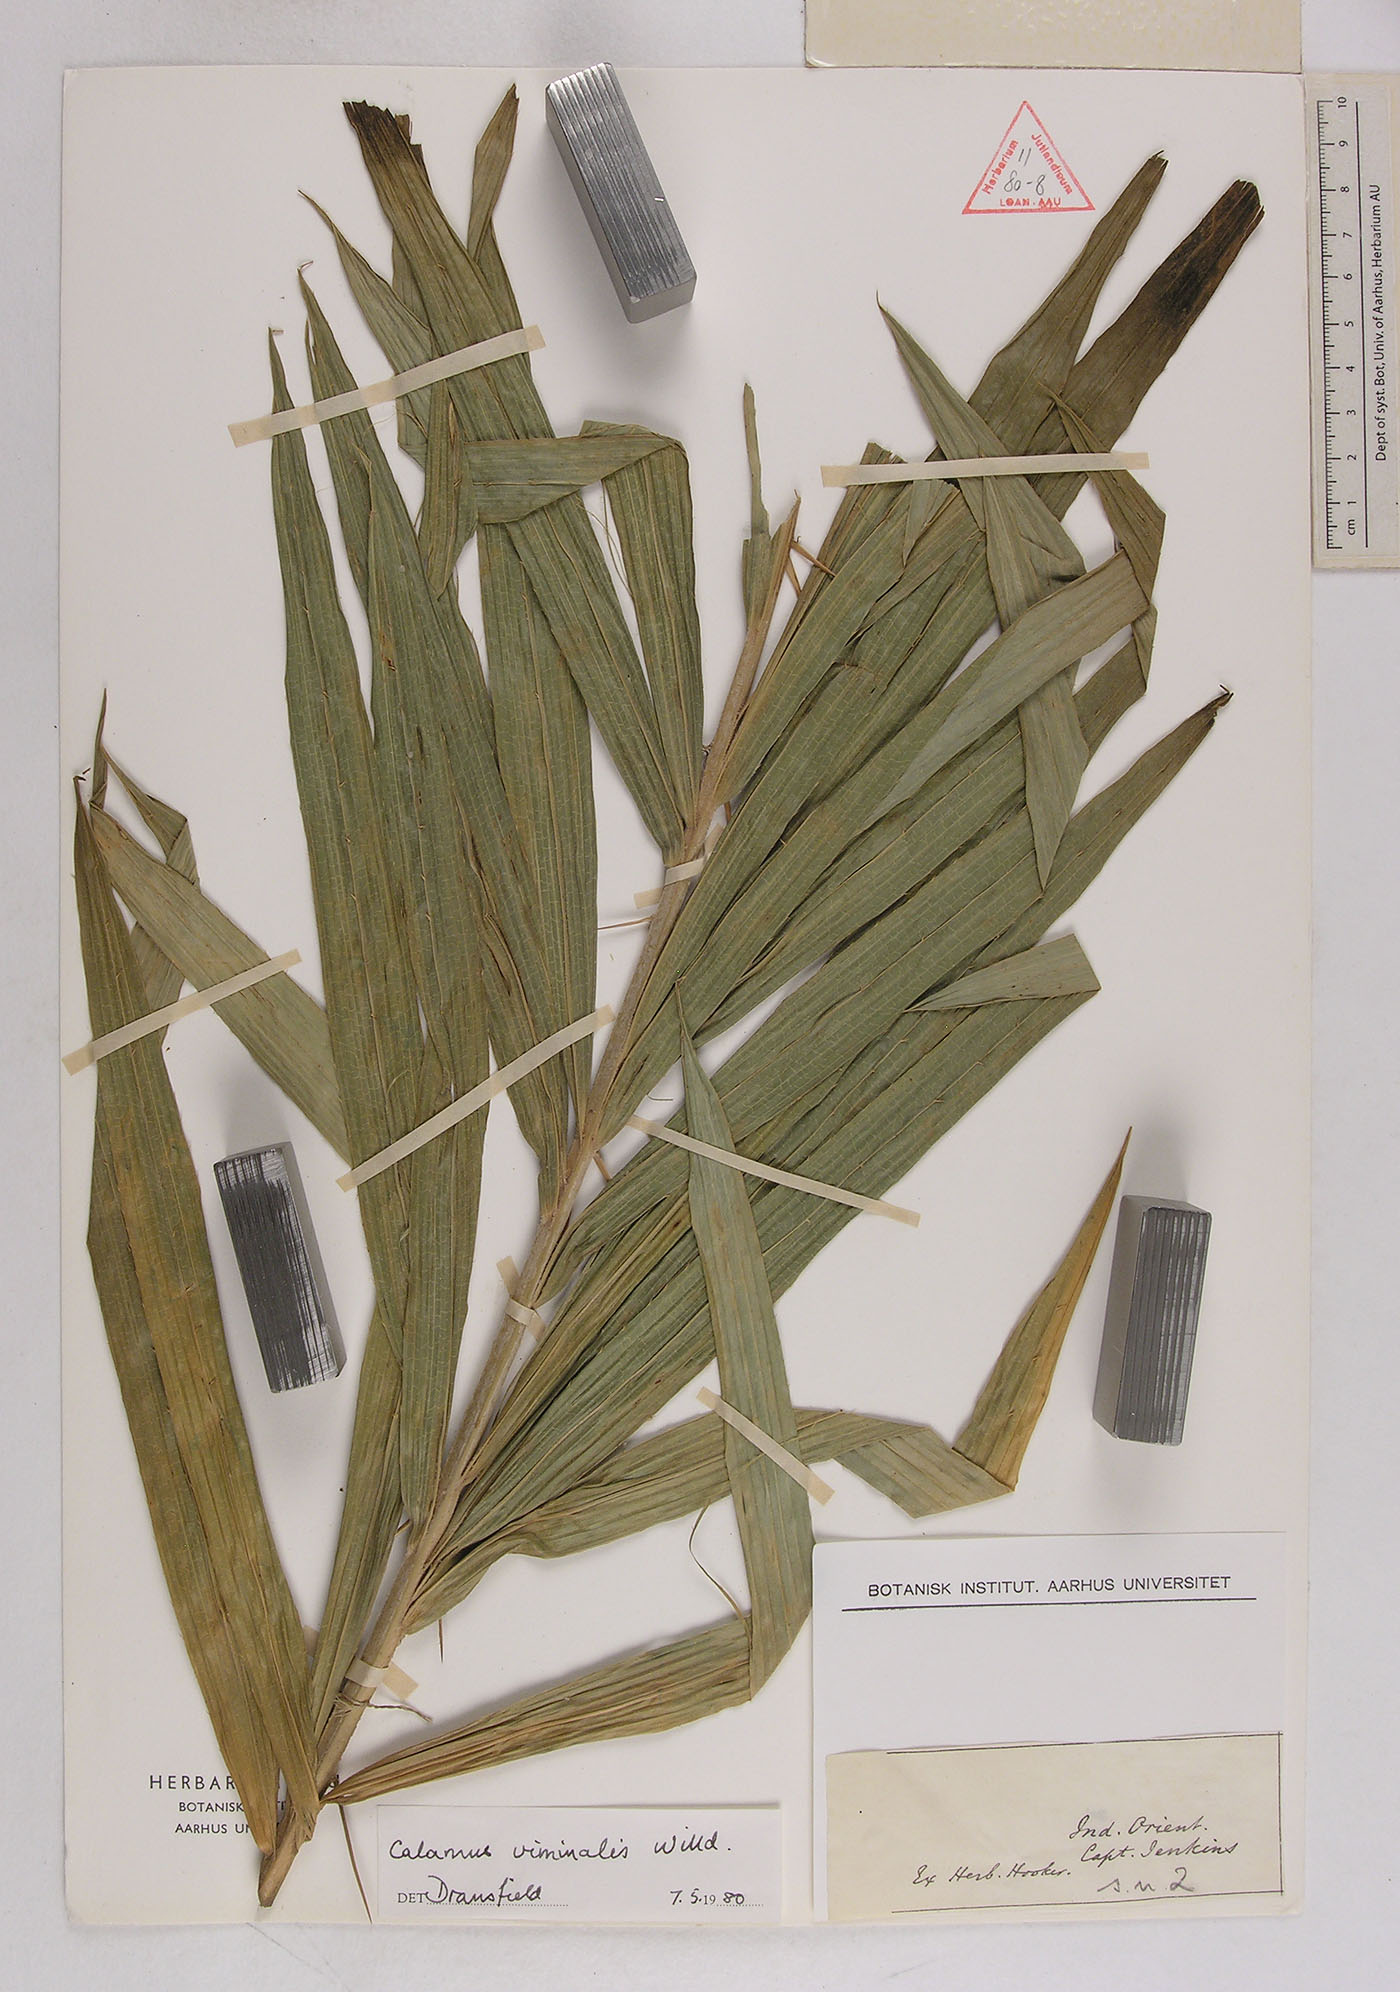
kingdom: Plantae
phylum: Tracheophyta
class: Liliopsida
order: Arecales
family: Arecaceae
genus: Calamus
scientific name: Calamus viminalis
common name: Osier-like rattan palm
